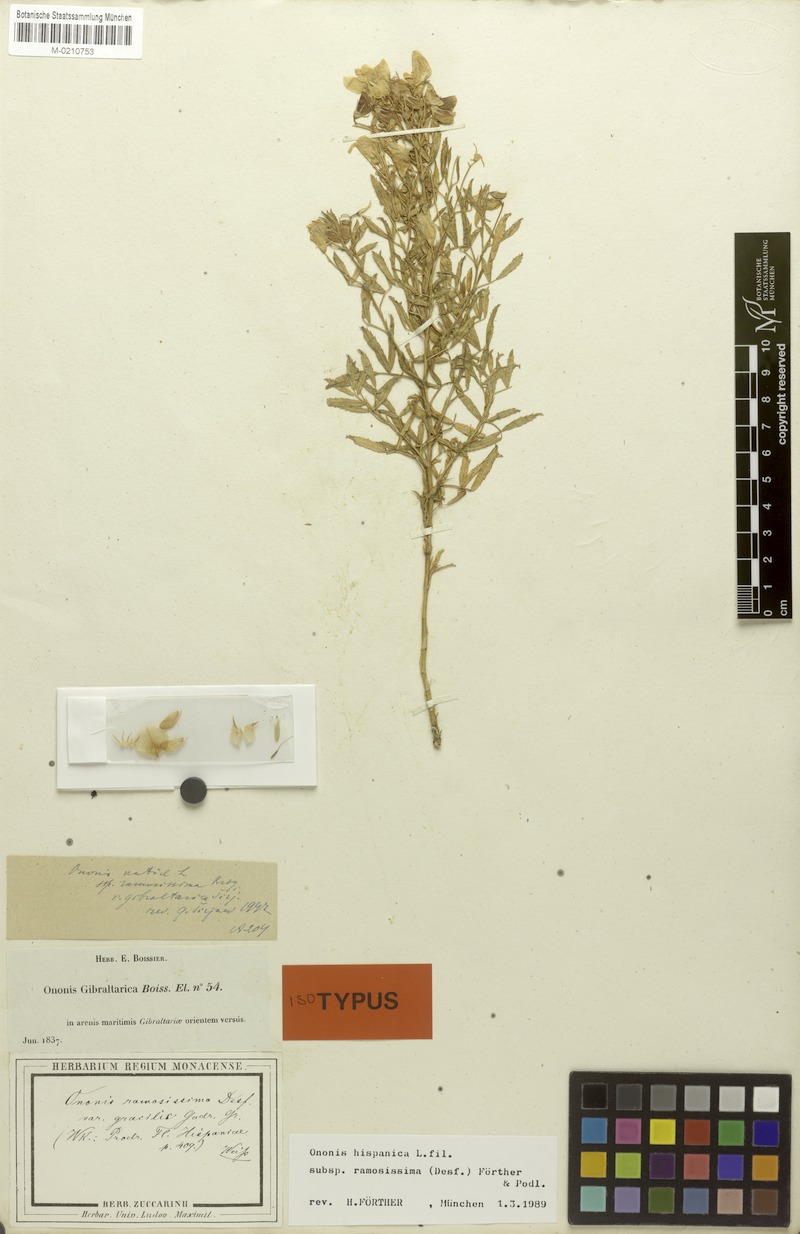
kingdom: Plantae
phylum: Tracheophyta
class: Magnoliopsida
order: Fabales
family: Fabaceae
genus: Ononis
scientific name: Ononis ramosissima
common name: Bush restharrow
